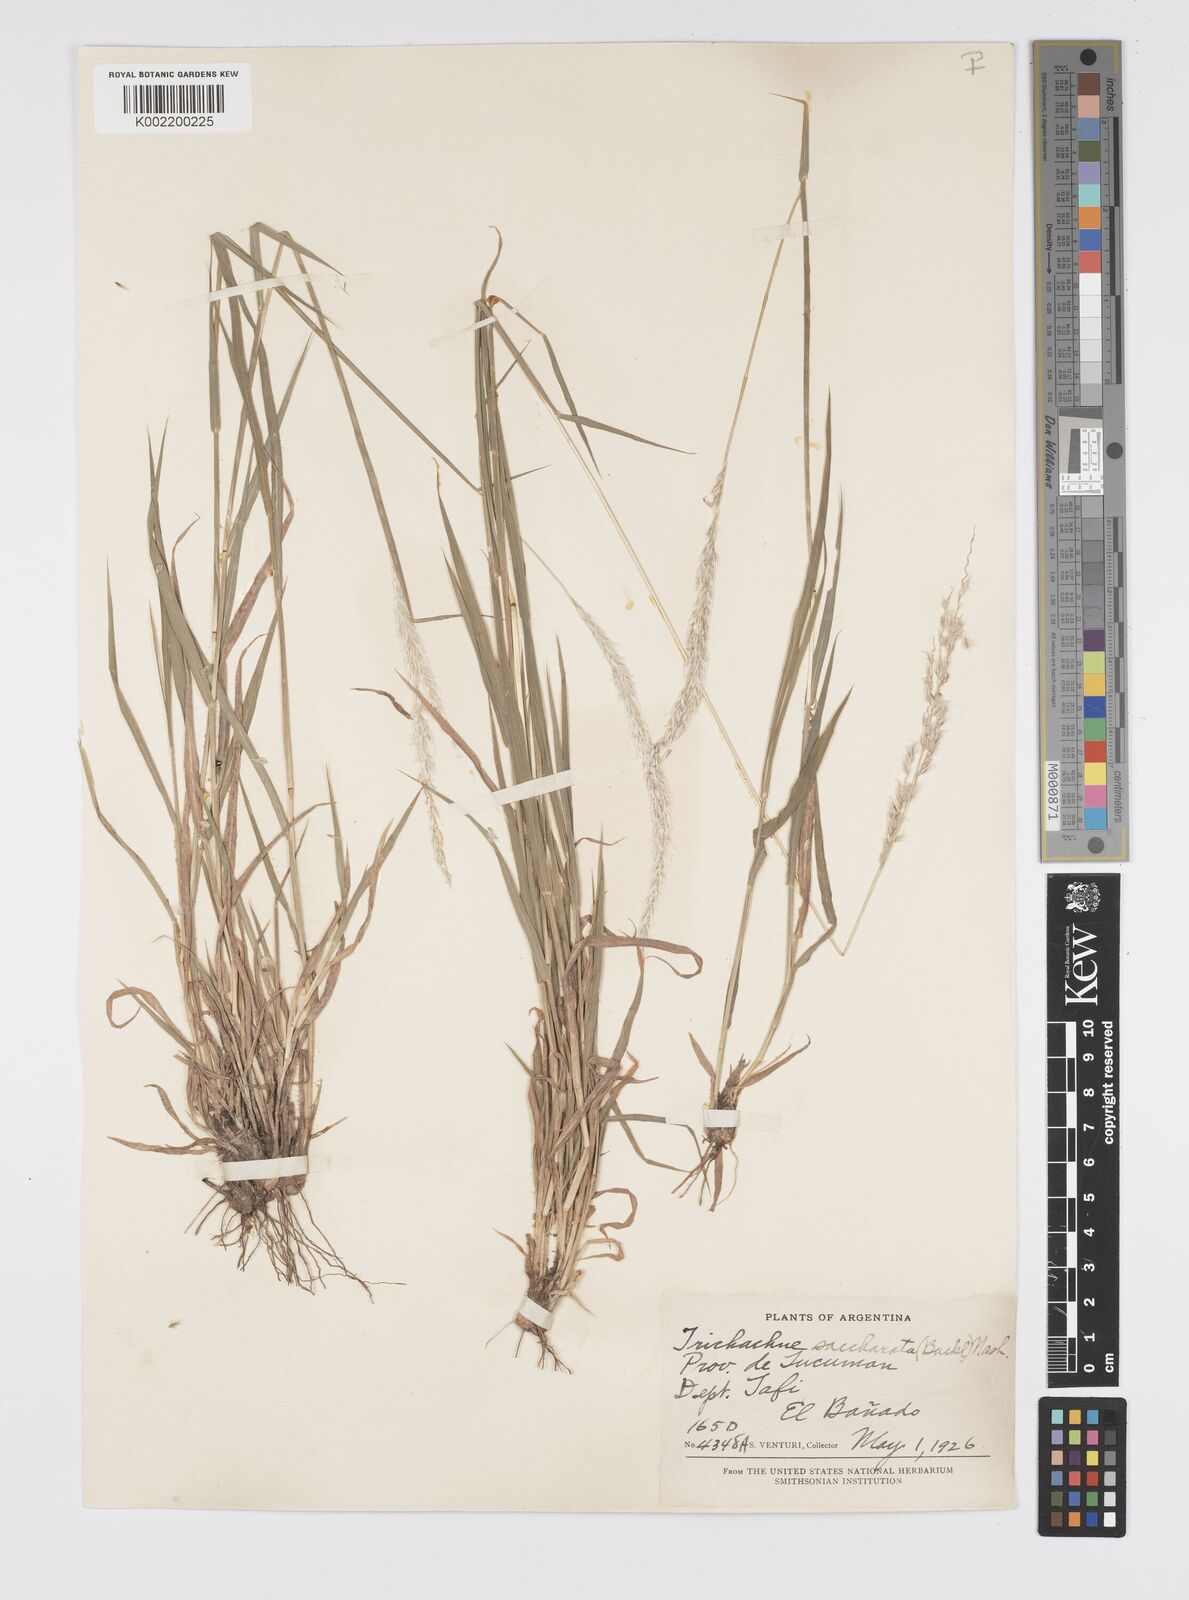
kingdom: Plantae
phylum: Tracheophyta
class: Liliopsida
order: Poales
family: Poaceae
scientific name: Poaceae
